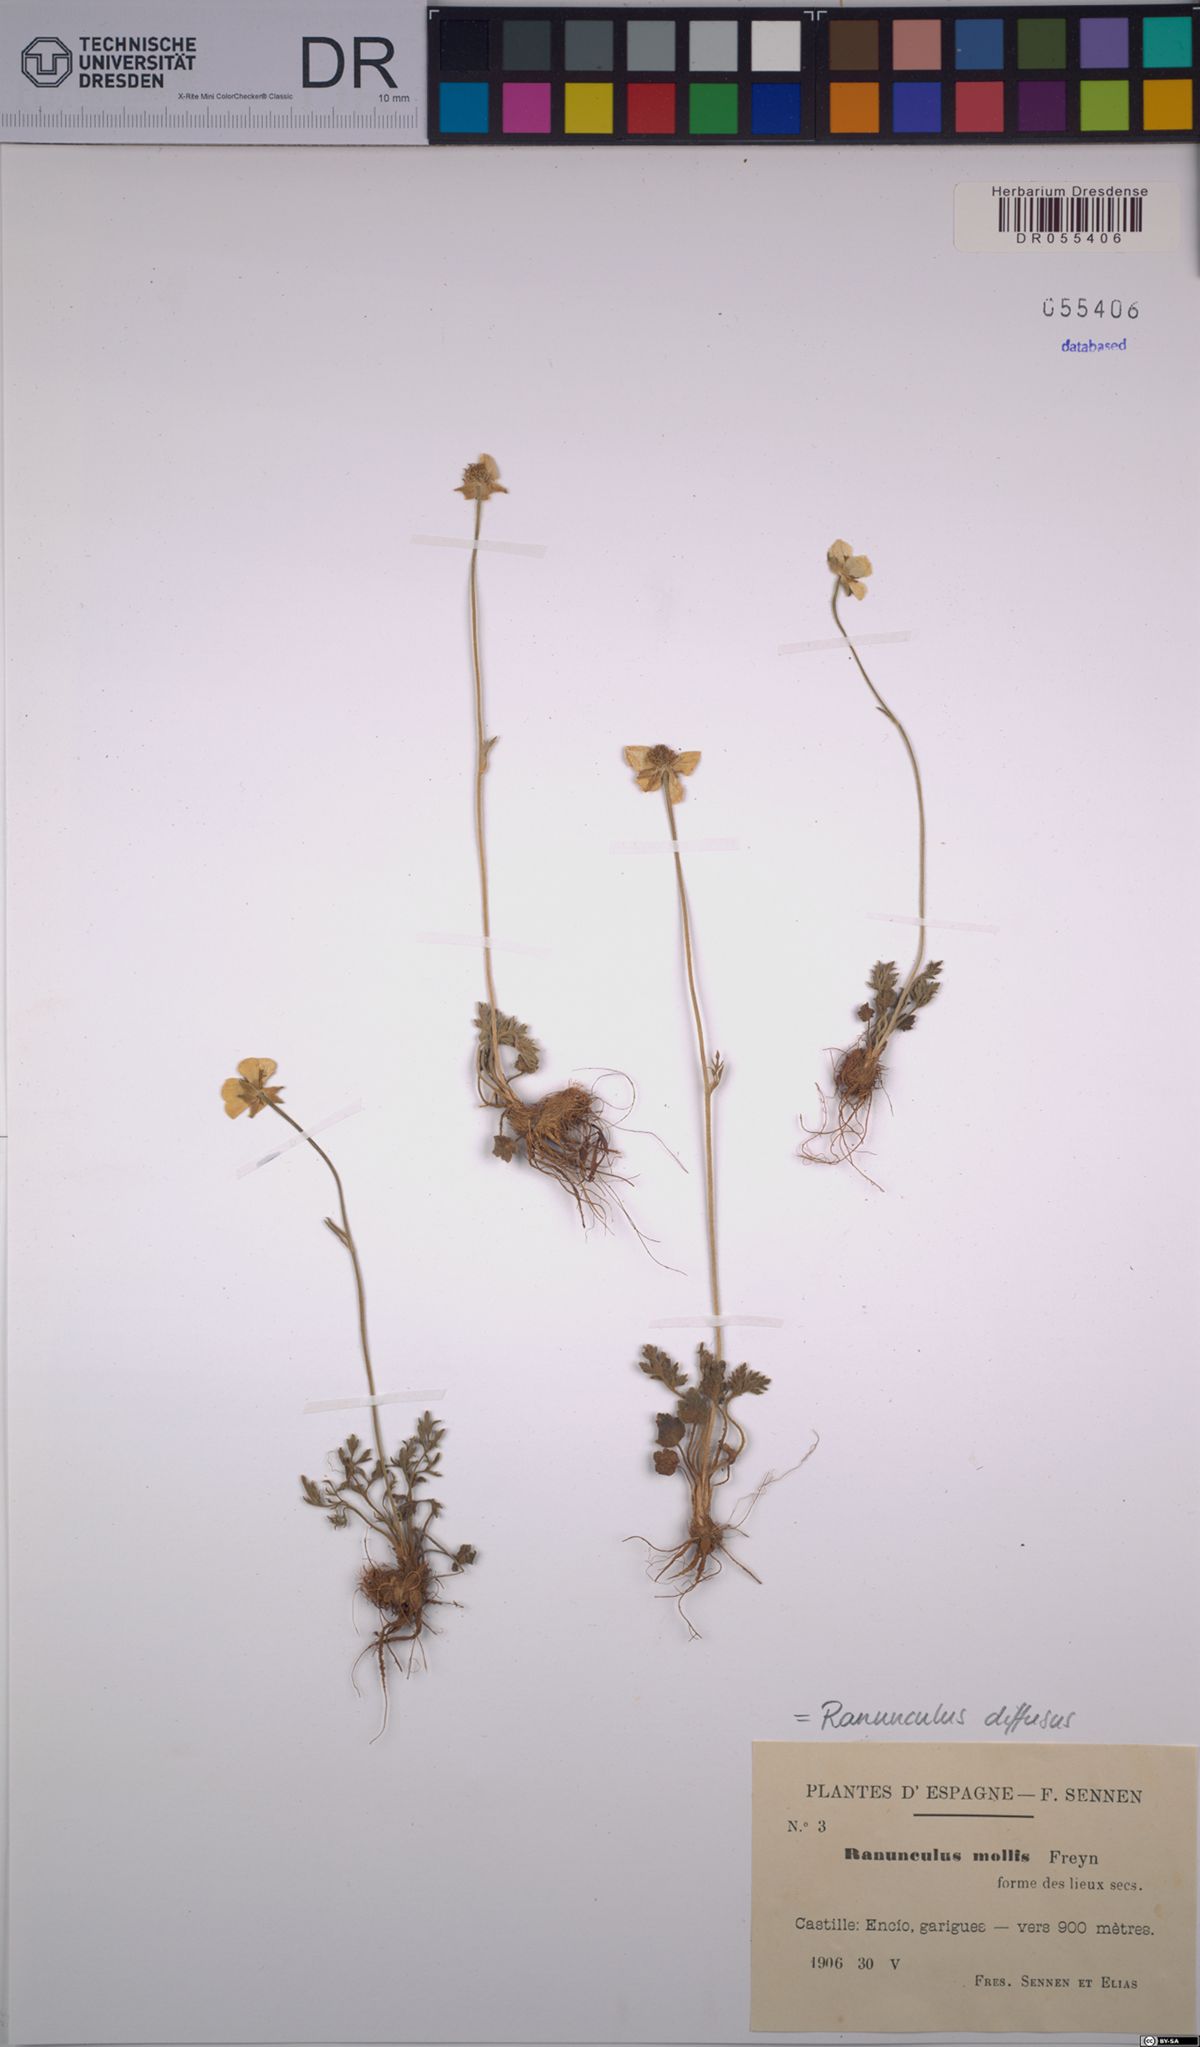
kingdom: Plantae
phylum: Tracheophyta
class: Magnoliopsida
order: Ranunculales
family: Ranunculaceae
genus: Ranunculus
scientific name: Ranunculus diffusus
